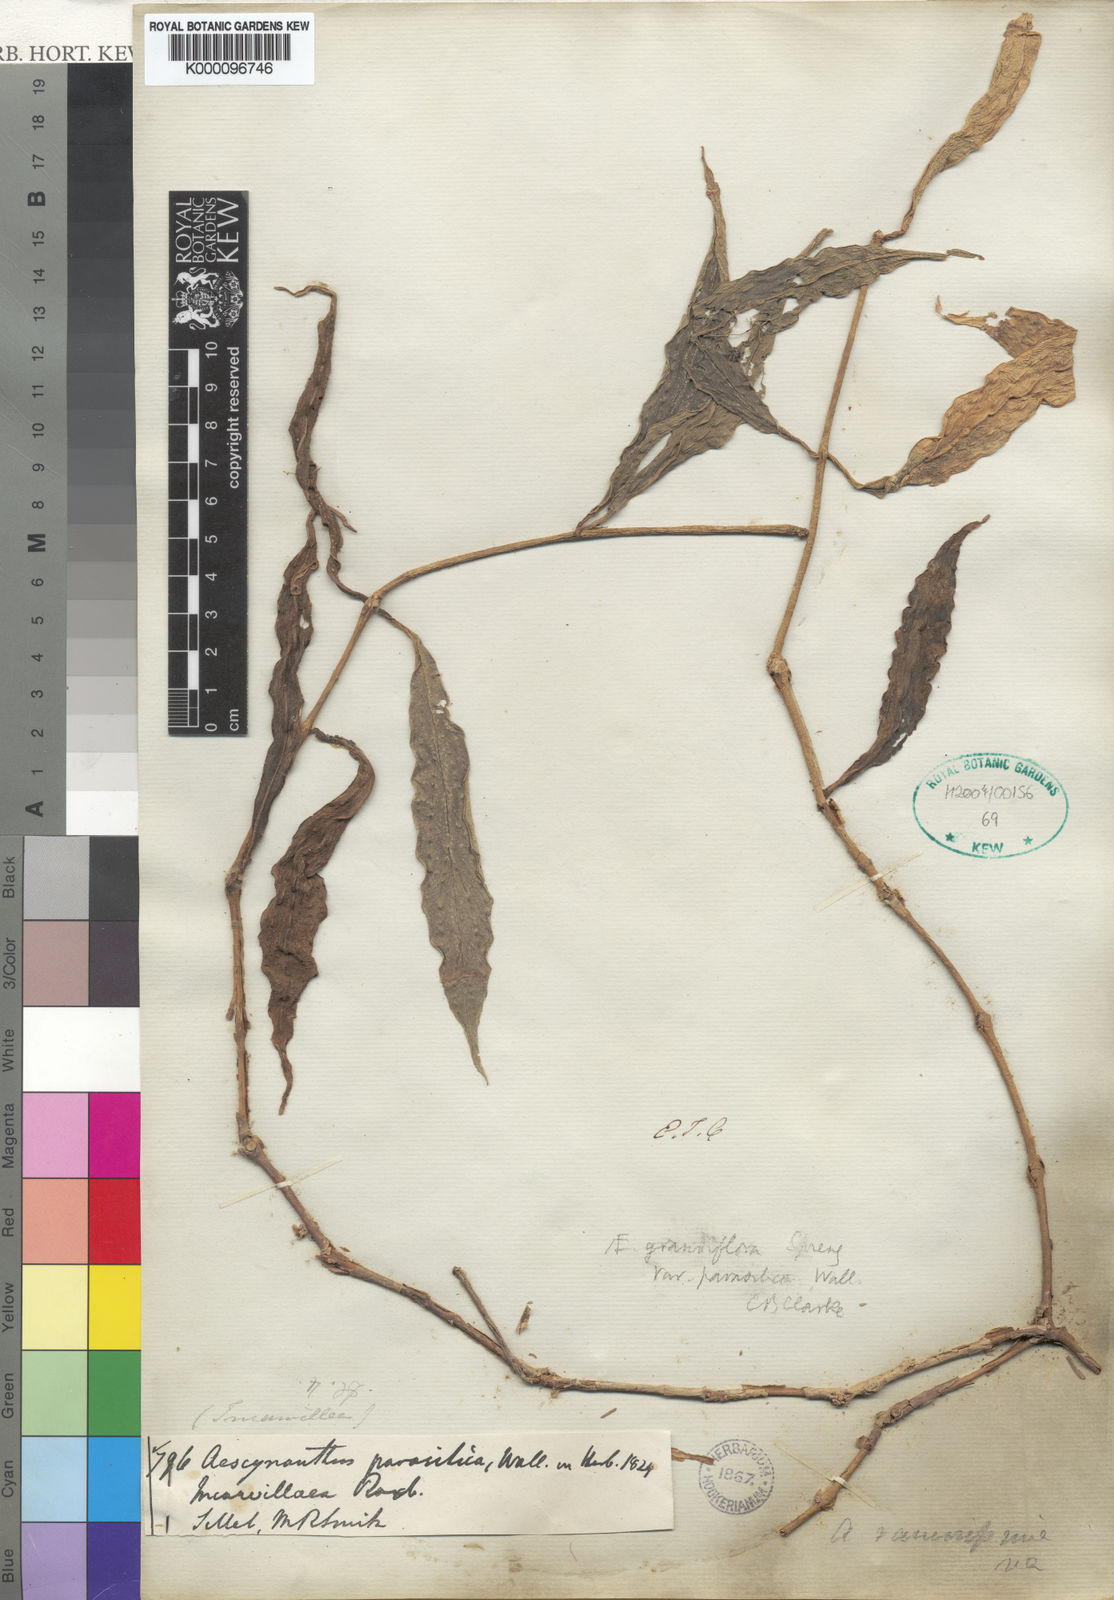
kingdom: Plantae
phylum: Tracheophyta
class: Magnoliopsida
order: Lamiales
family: Gesneriaceae
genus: Aeschynanthus
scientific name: Aeschynanthus parasiticus
